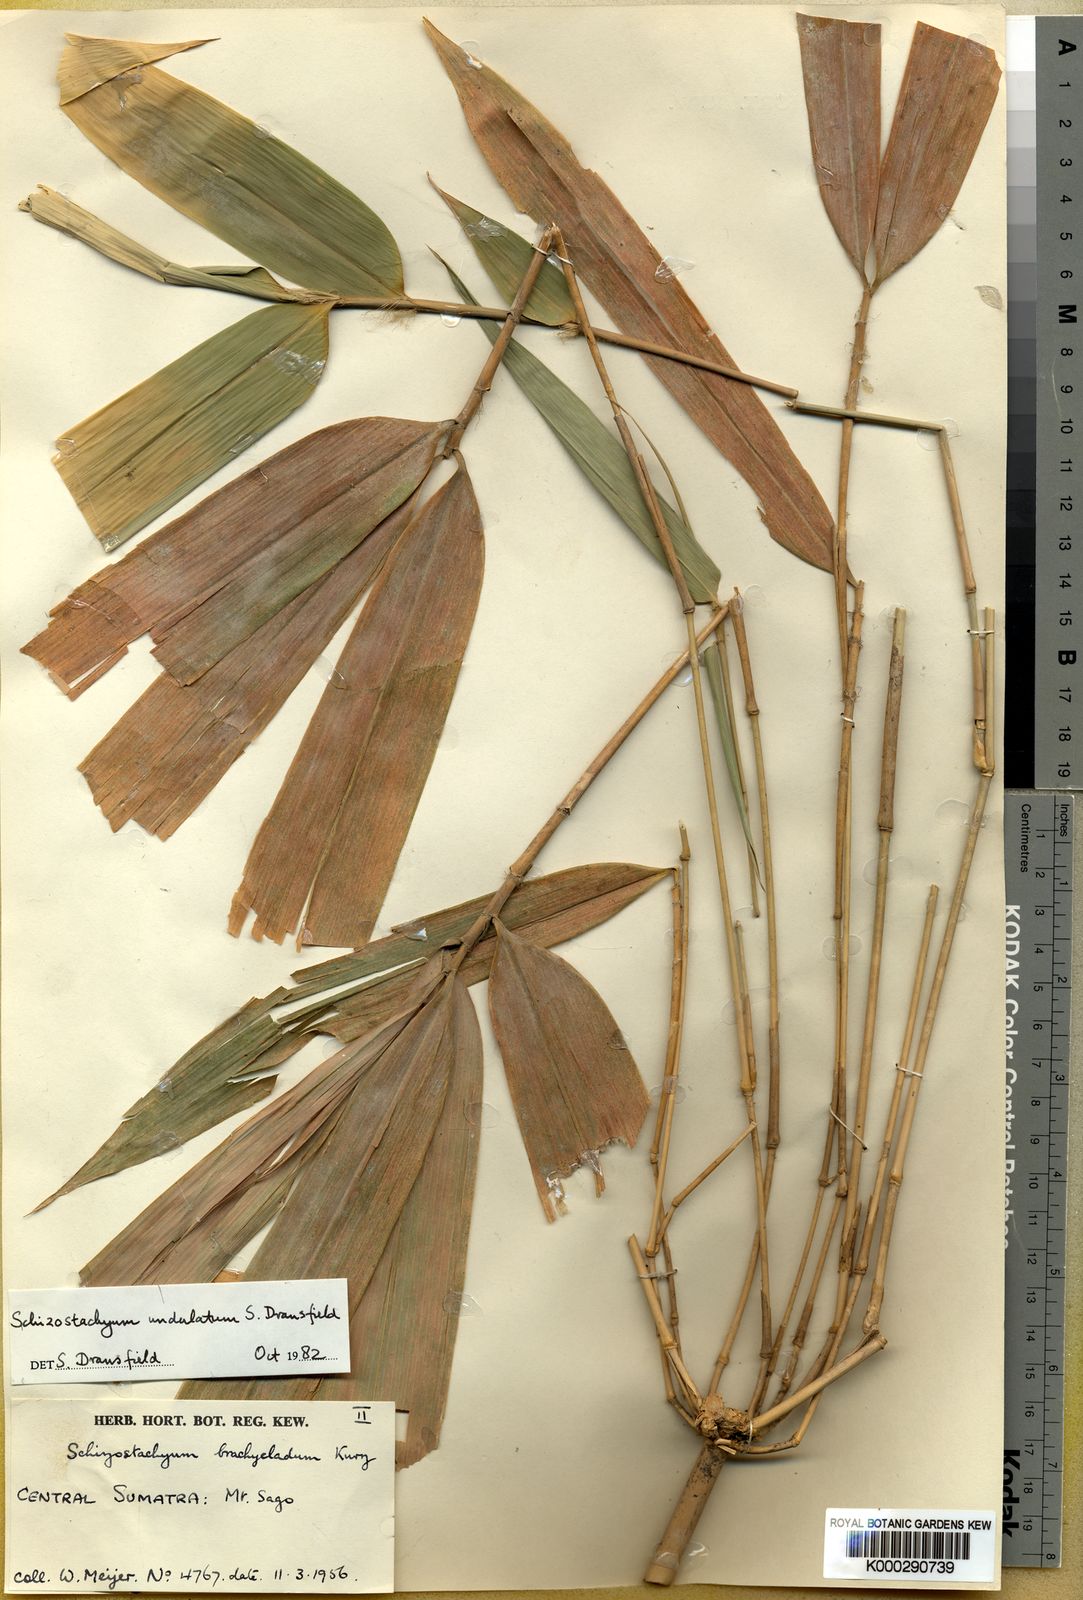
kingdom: Plantae
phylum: Tracheophyta
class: Liliopsida
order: Poales
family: Poaceae
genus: Schizostachyum
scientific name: Schizostachyum undulatum
